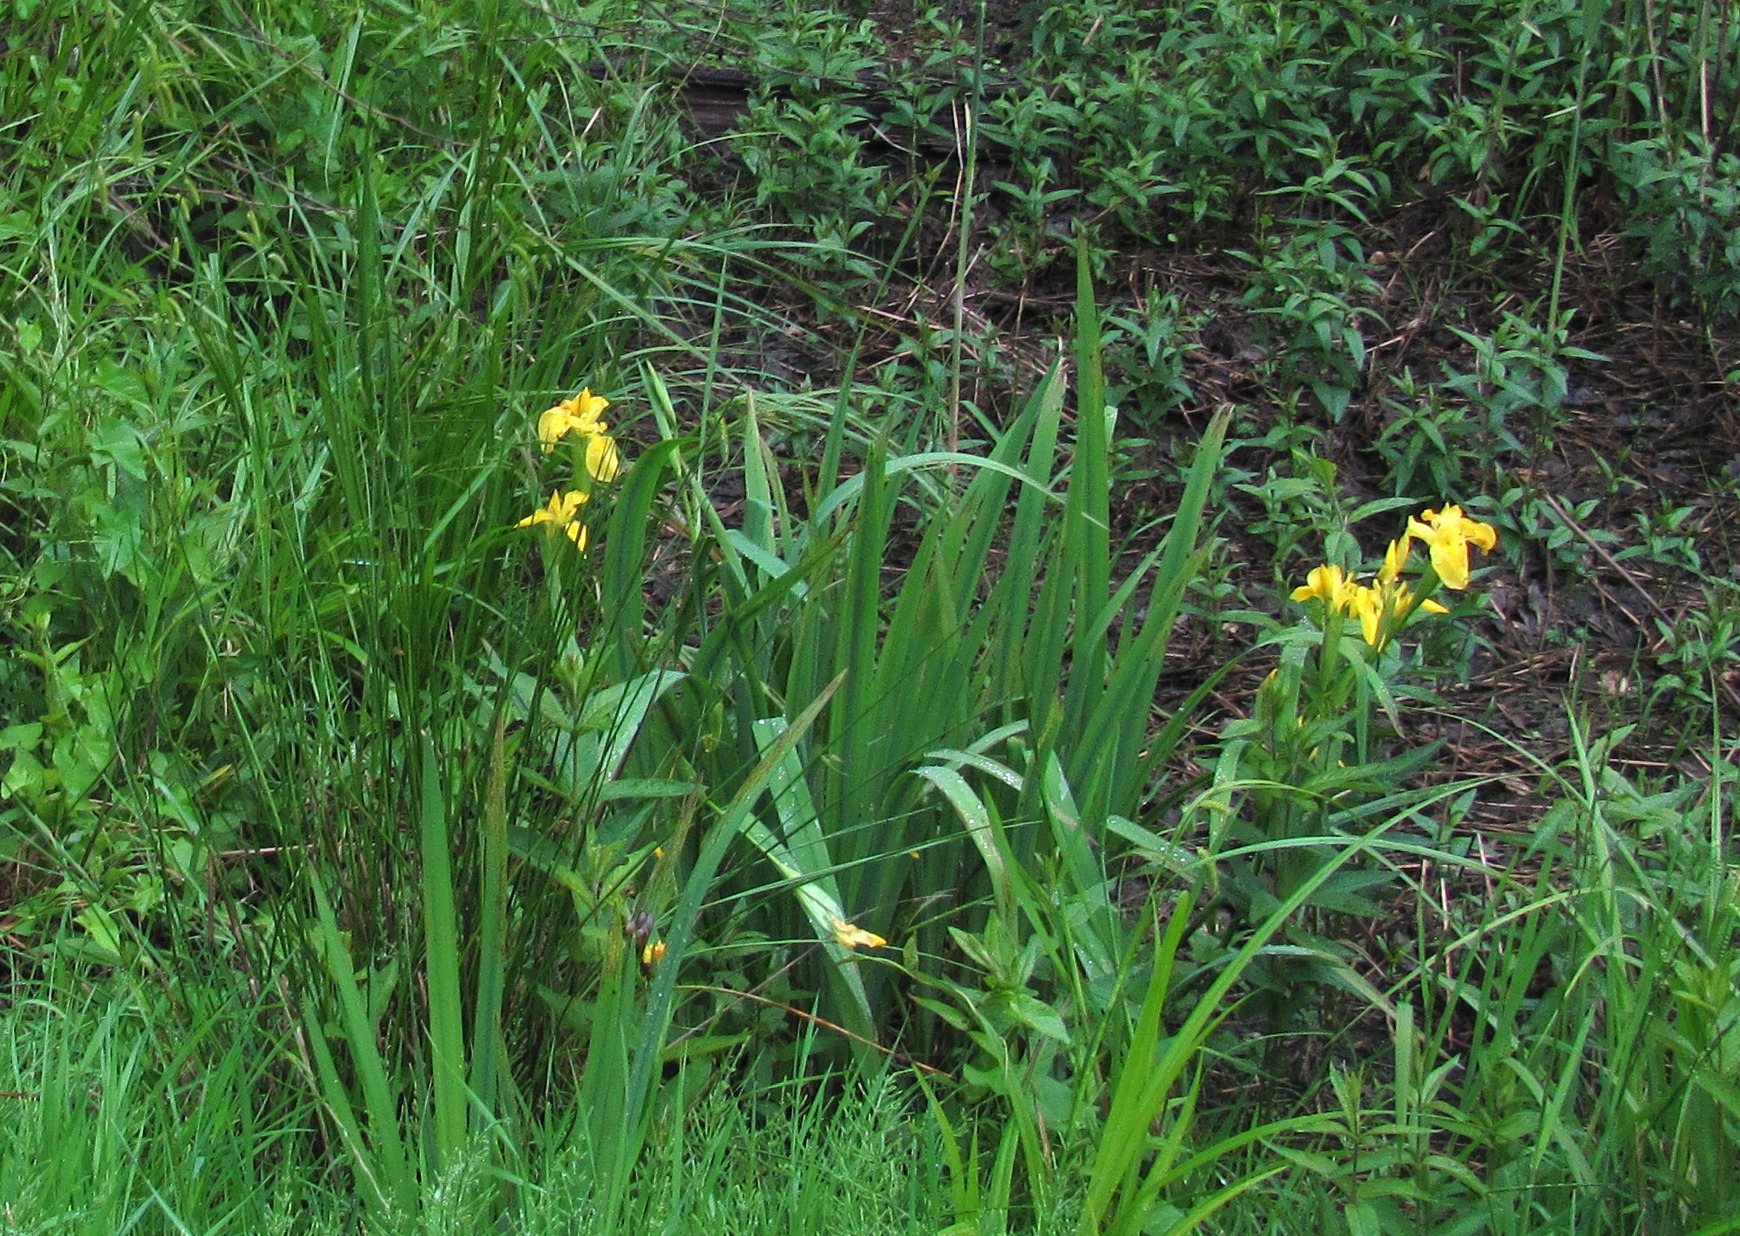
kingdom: Plantae
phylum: Tracheophyta
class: Liliopsida
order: Asparagales
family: Iridaceae
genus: Iris
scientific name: Iris pseudacorus
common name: Gul iris
